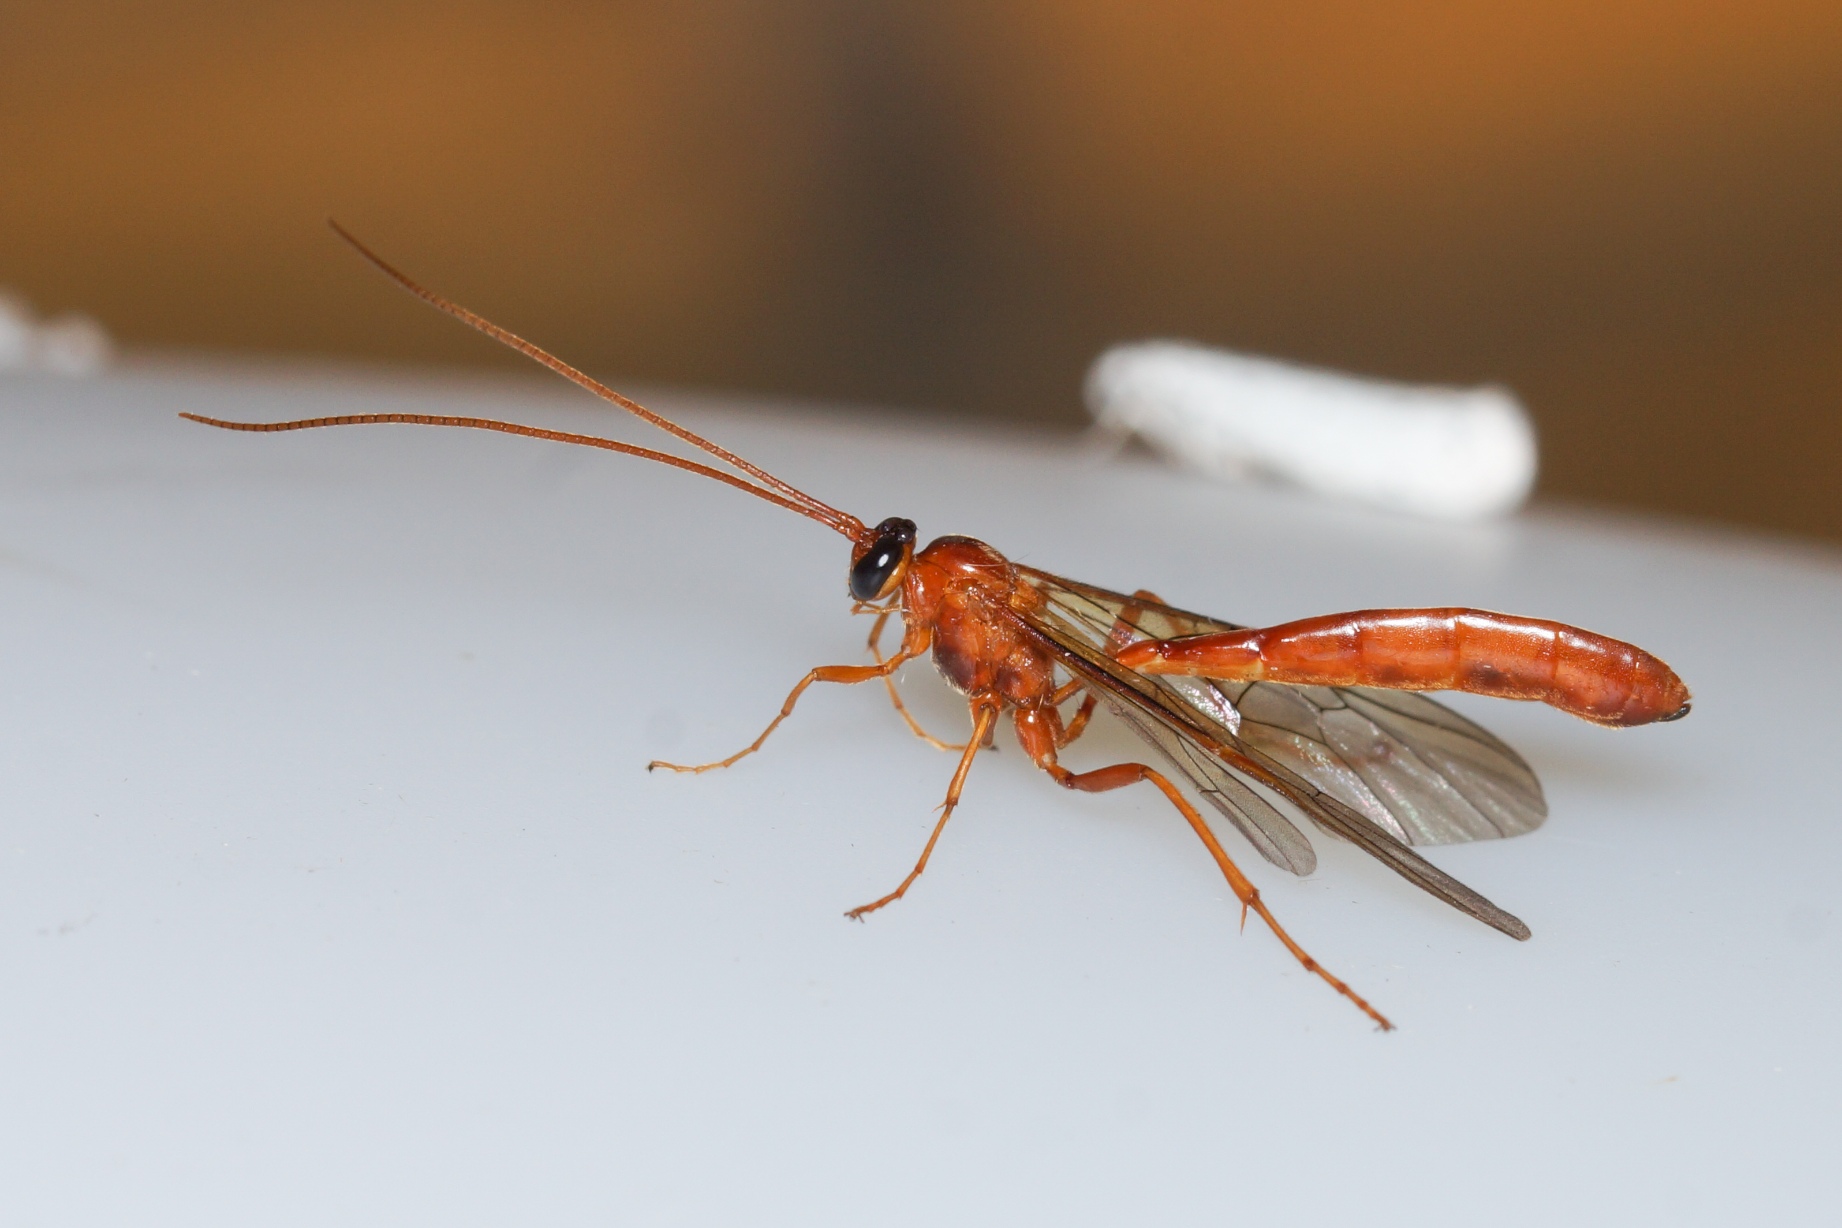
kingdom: Animalia
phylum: Arthropoda
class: Insecta
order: Hymenoptera
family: Ichneumonidae
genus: Ophion
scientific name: Ophion
